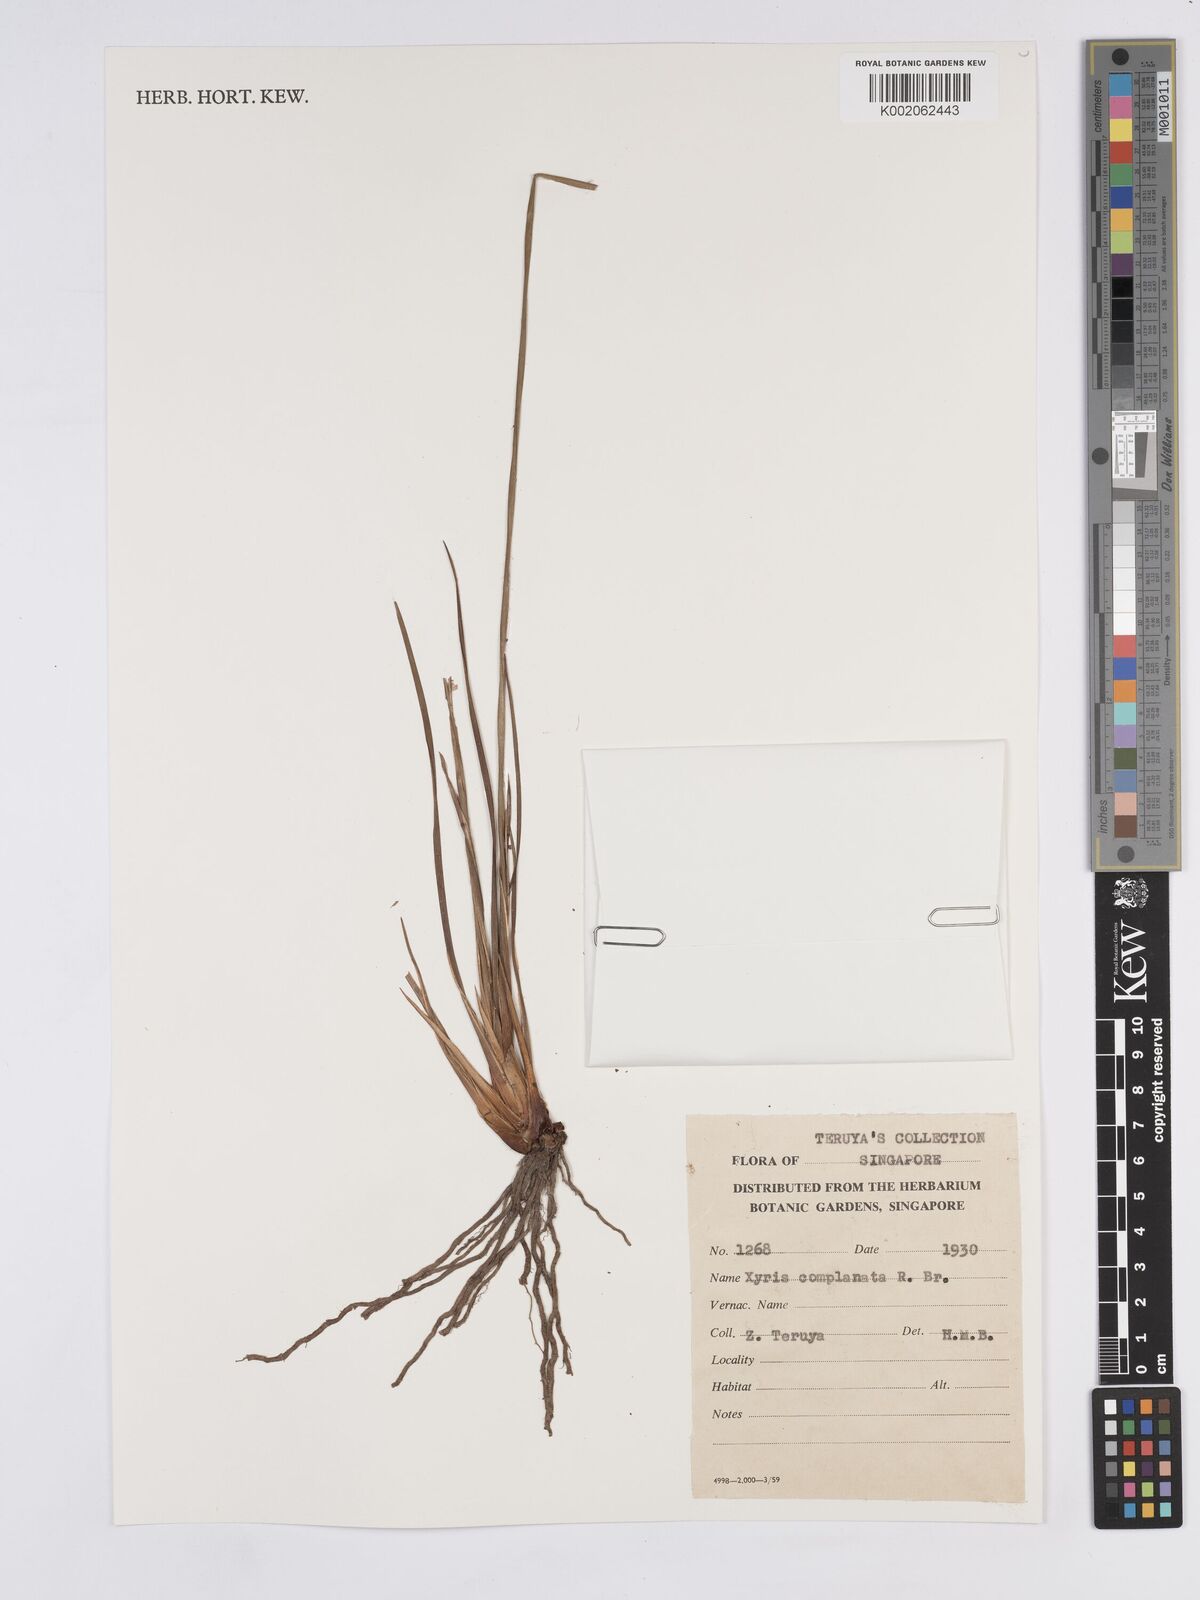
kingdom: Plantae
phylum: Tracheophyta
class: Liliopsida
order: Poales
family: Xyridaceae
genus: Xyris
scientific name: Xyris complanata
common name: Hawai'i yelloweyed grass
